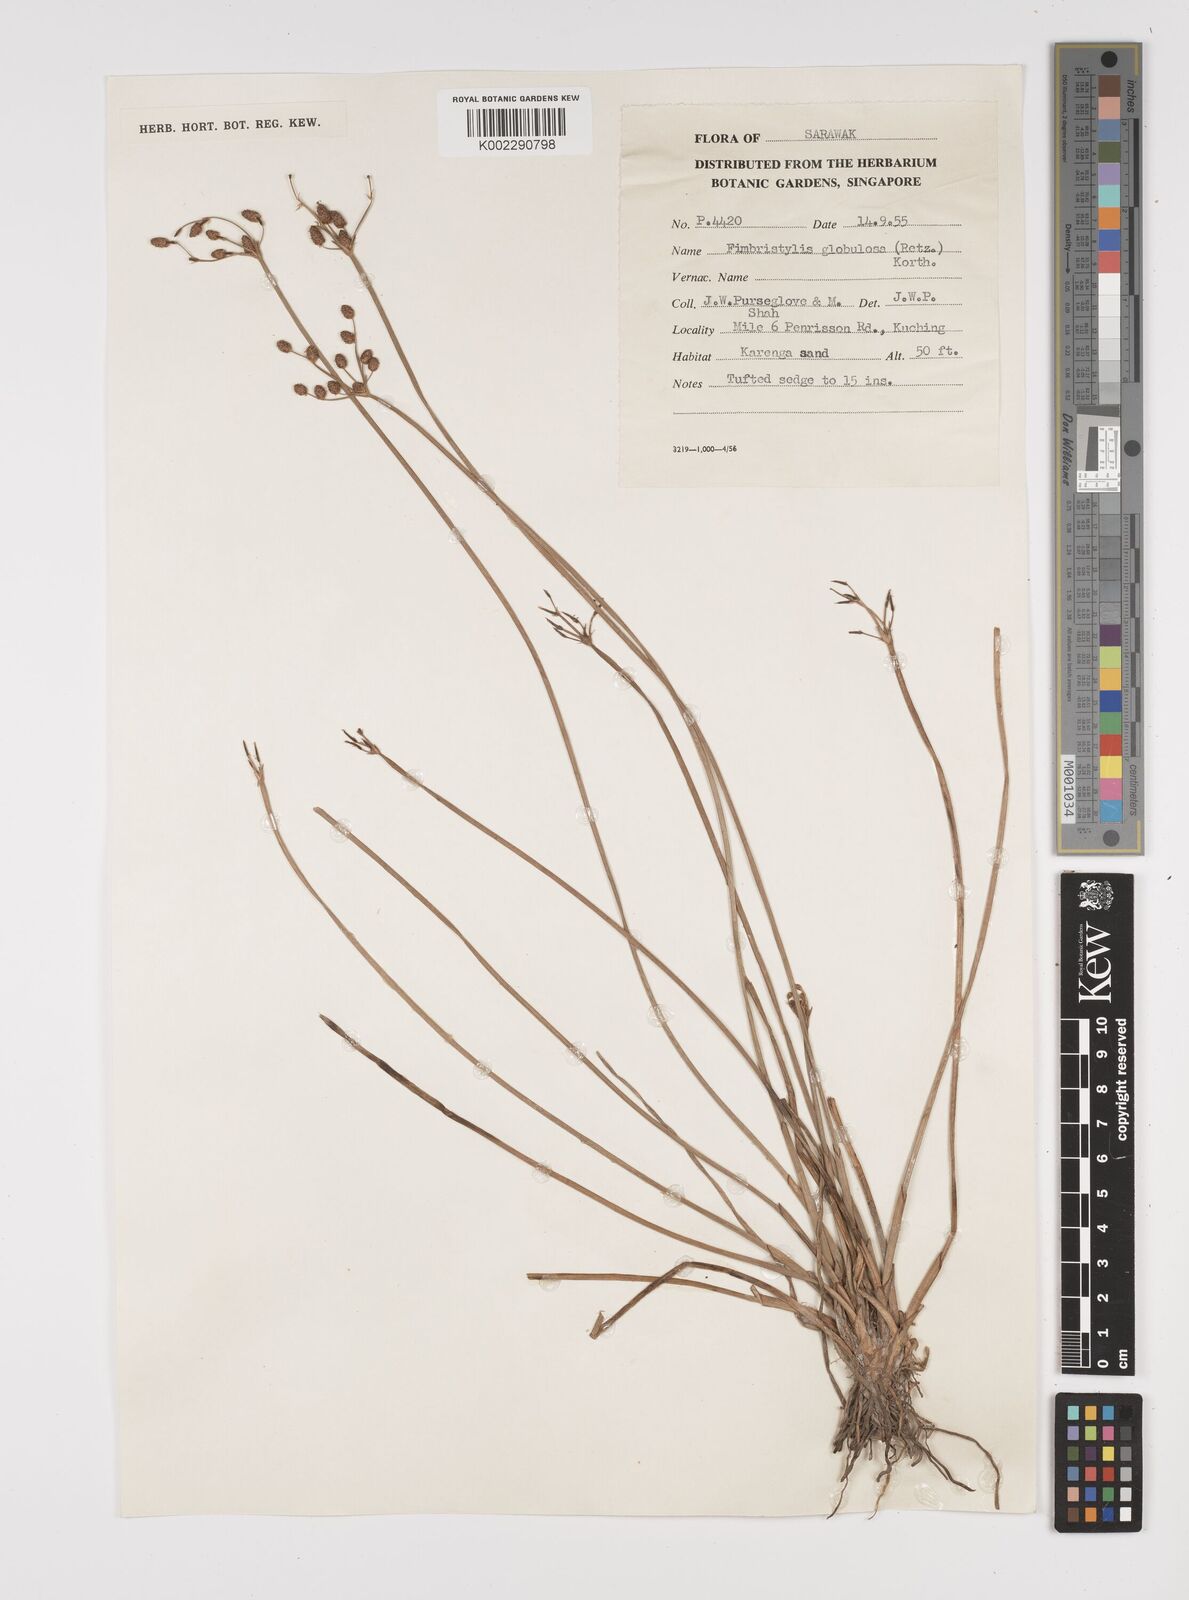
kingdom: Plantae
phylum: Tracheophyta
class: Liliopsida
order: Poales
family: Cyperaceae
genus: Fimbristylis
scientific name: Fimbristylis umbellaris
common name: Globular fimbristylis
